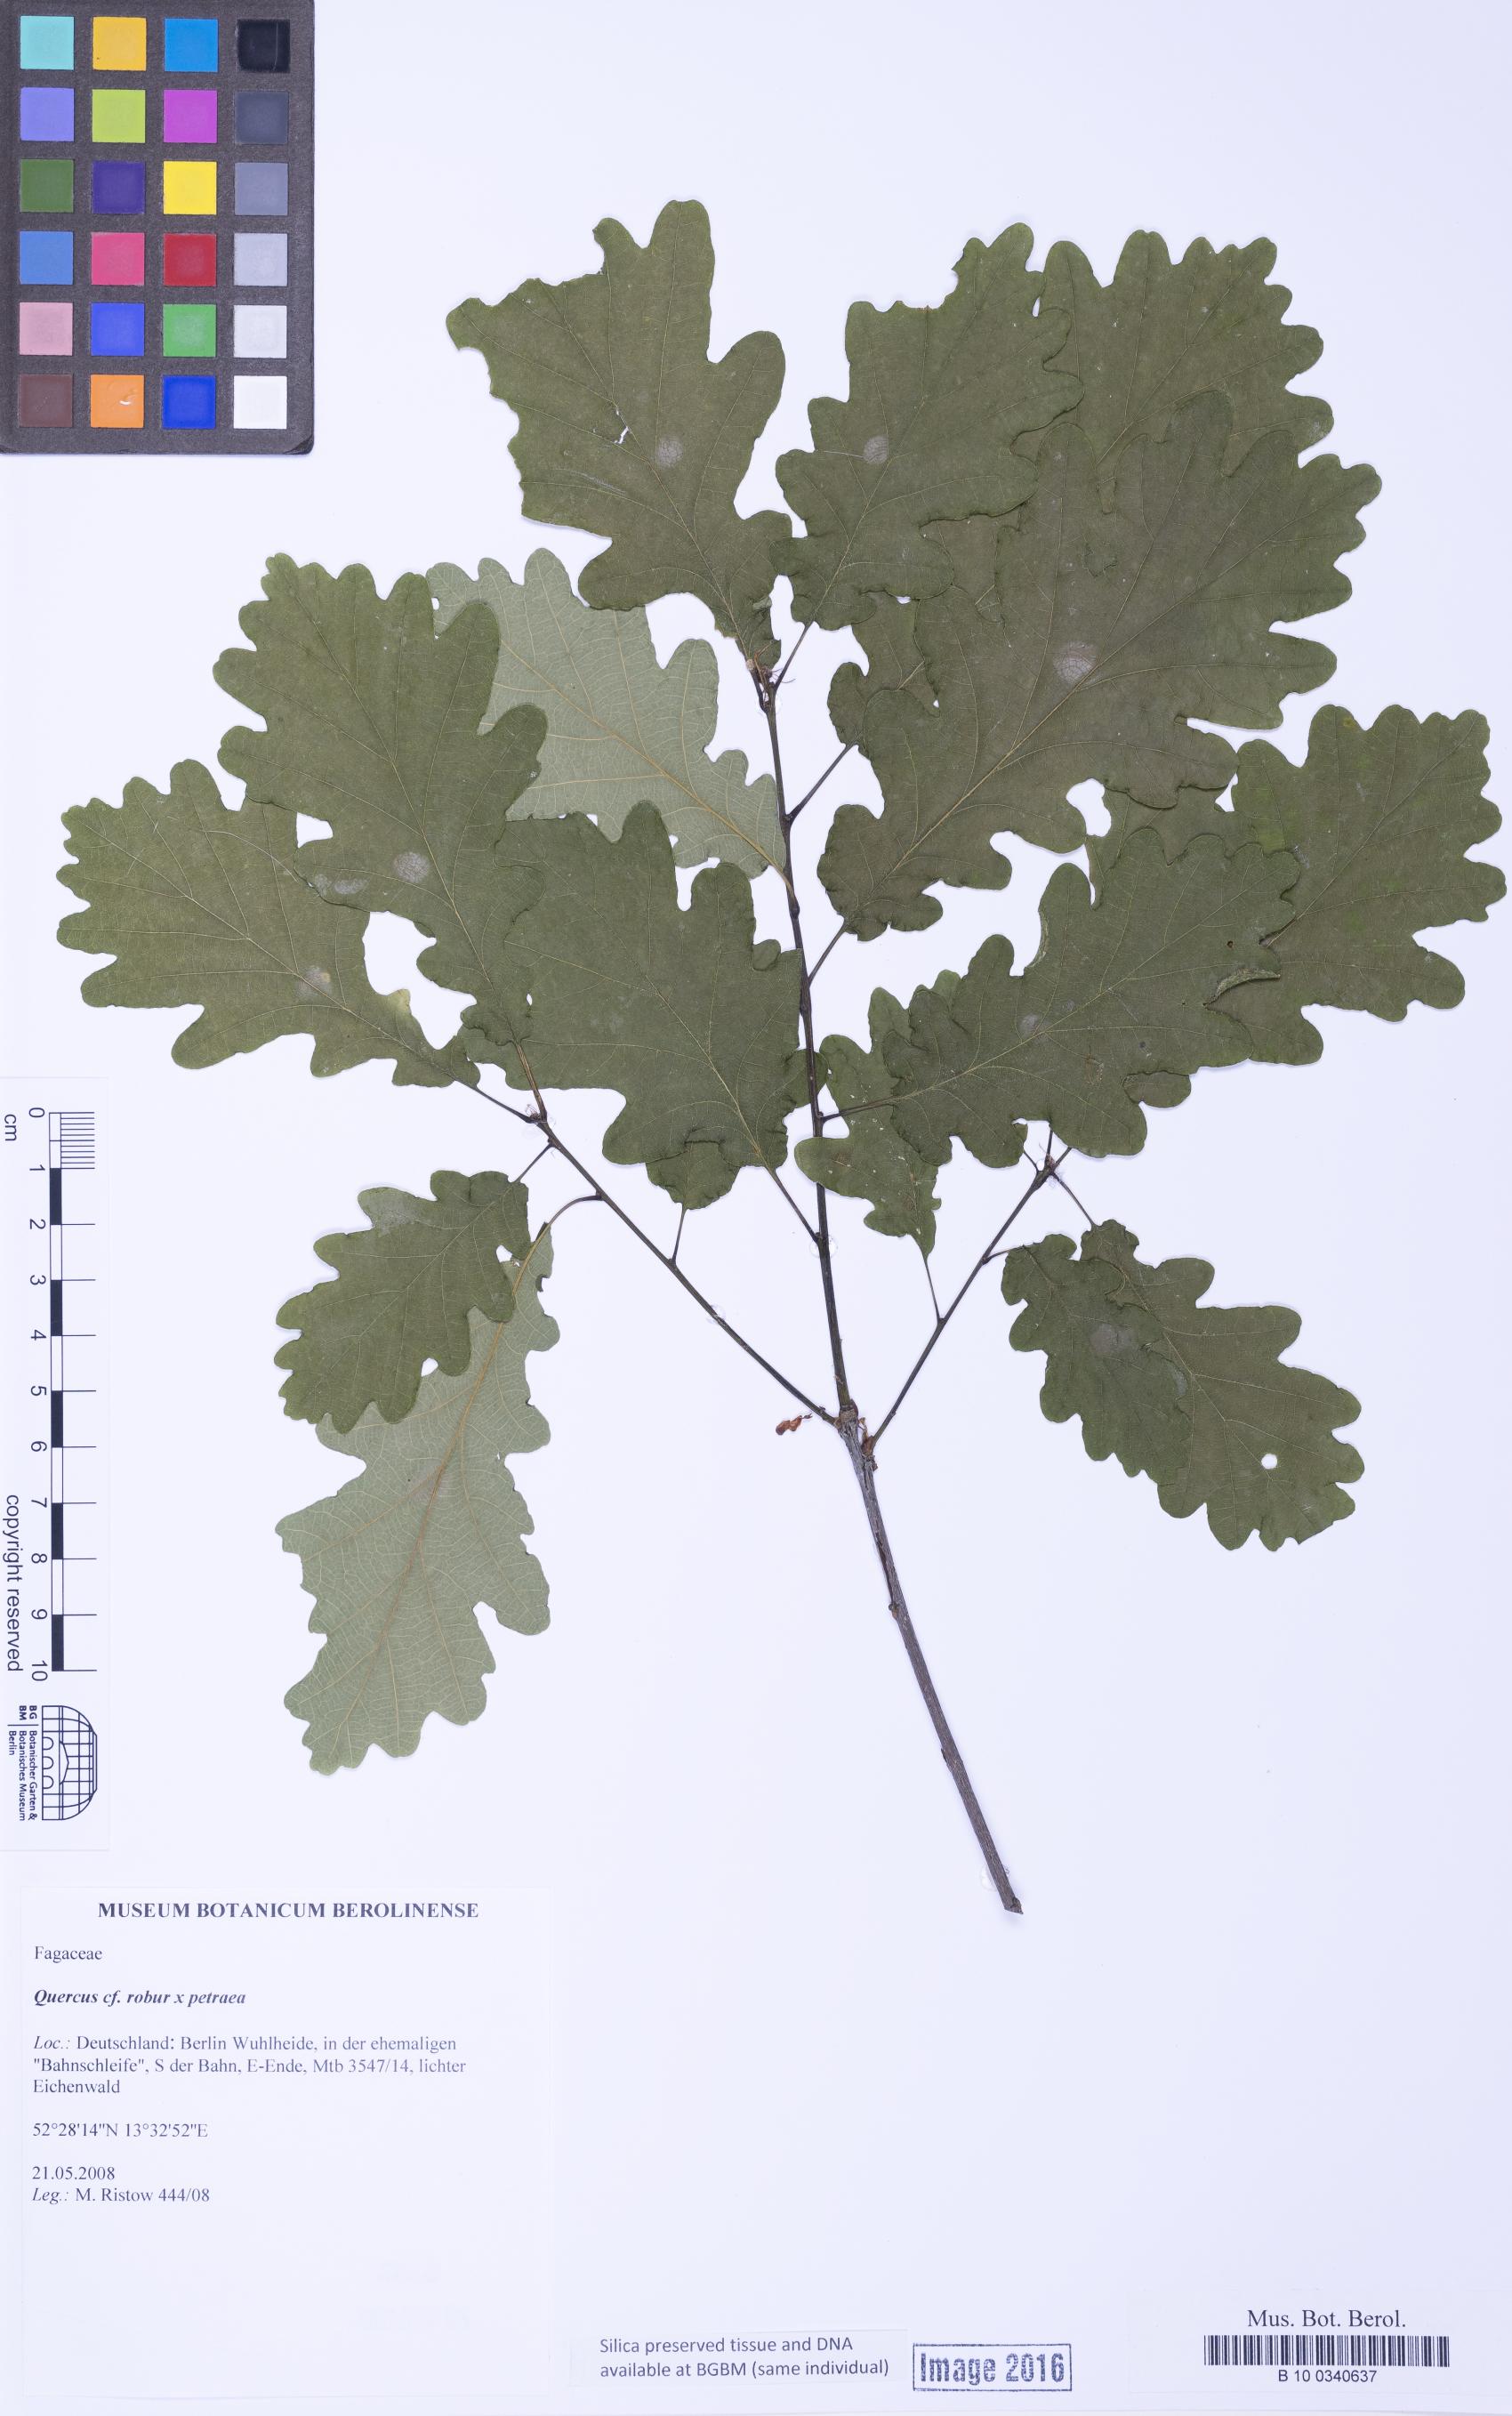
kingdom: Plantae
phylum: Tracheophyta
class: Magnoliopsida
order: Fagales
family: Fagaceae
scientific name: Fagaceae
